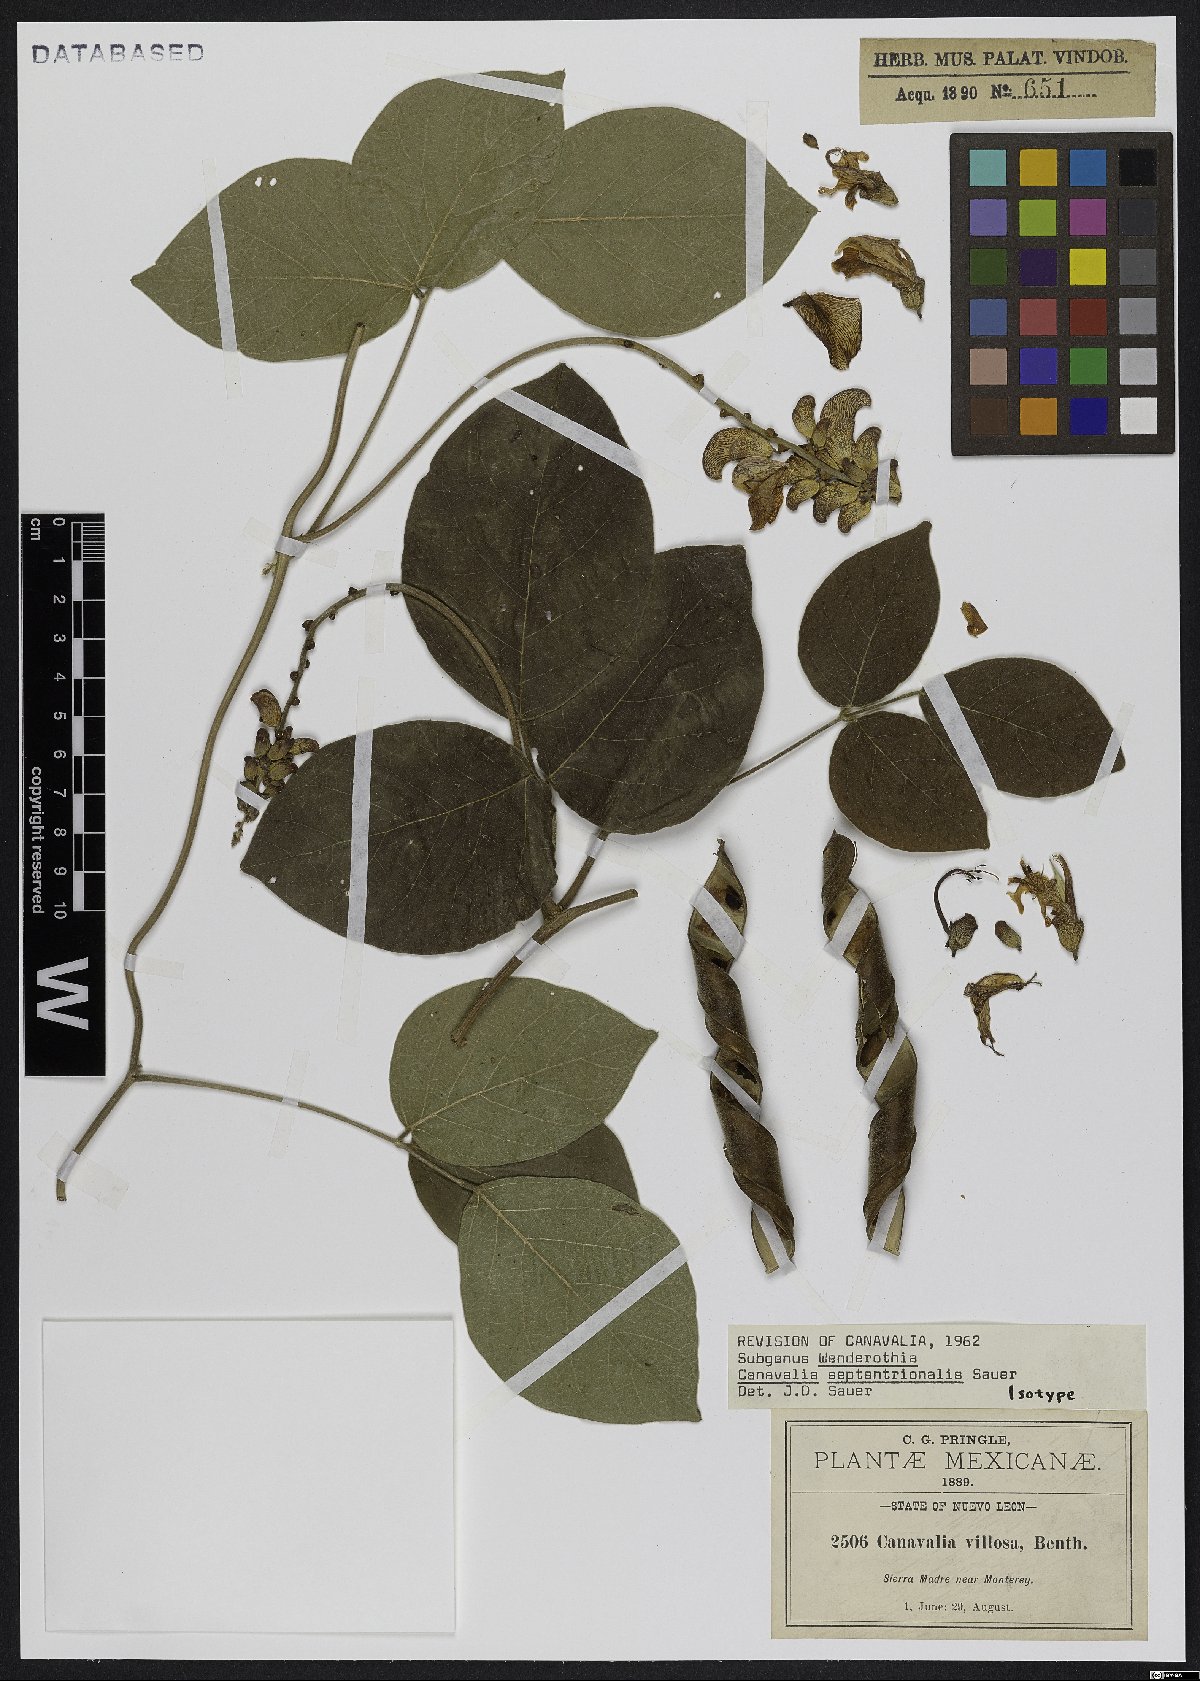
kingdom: Plantae
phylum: Tracheophyta
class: Magnoliopsida
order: Fabales
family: Fabaceae
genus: Canavalia
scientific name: Canavalia septentrionalis
